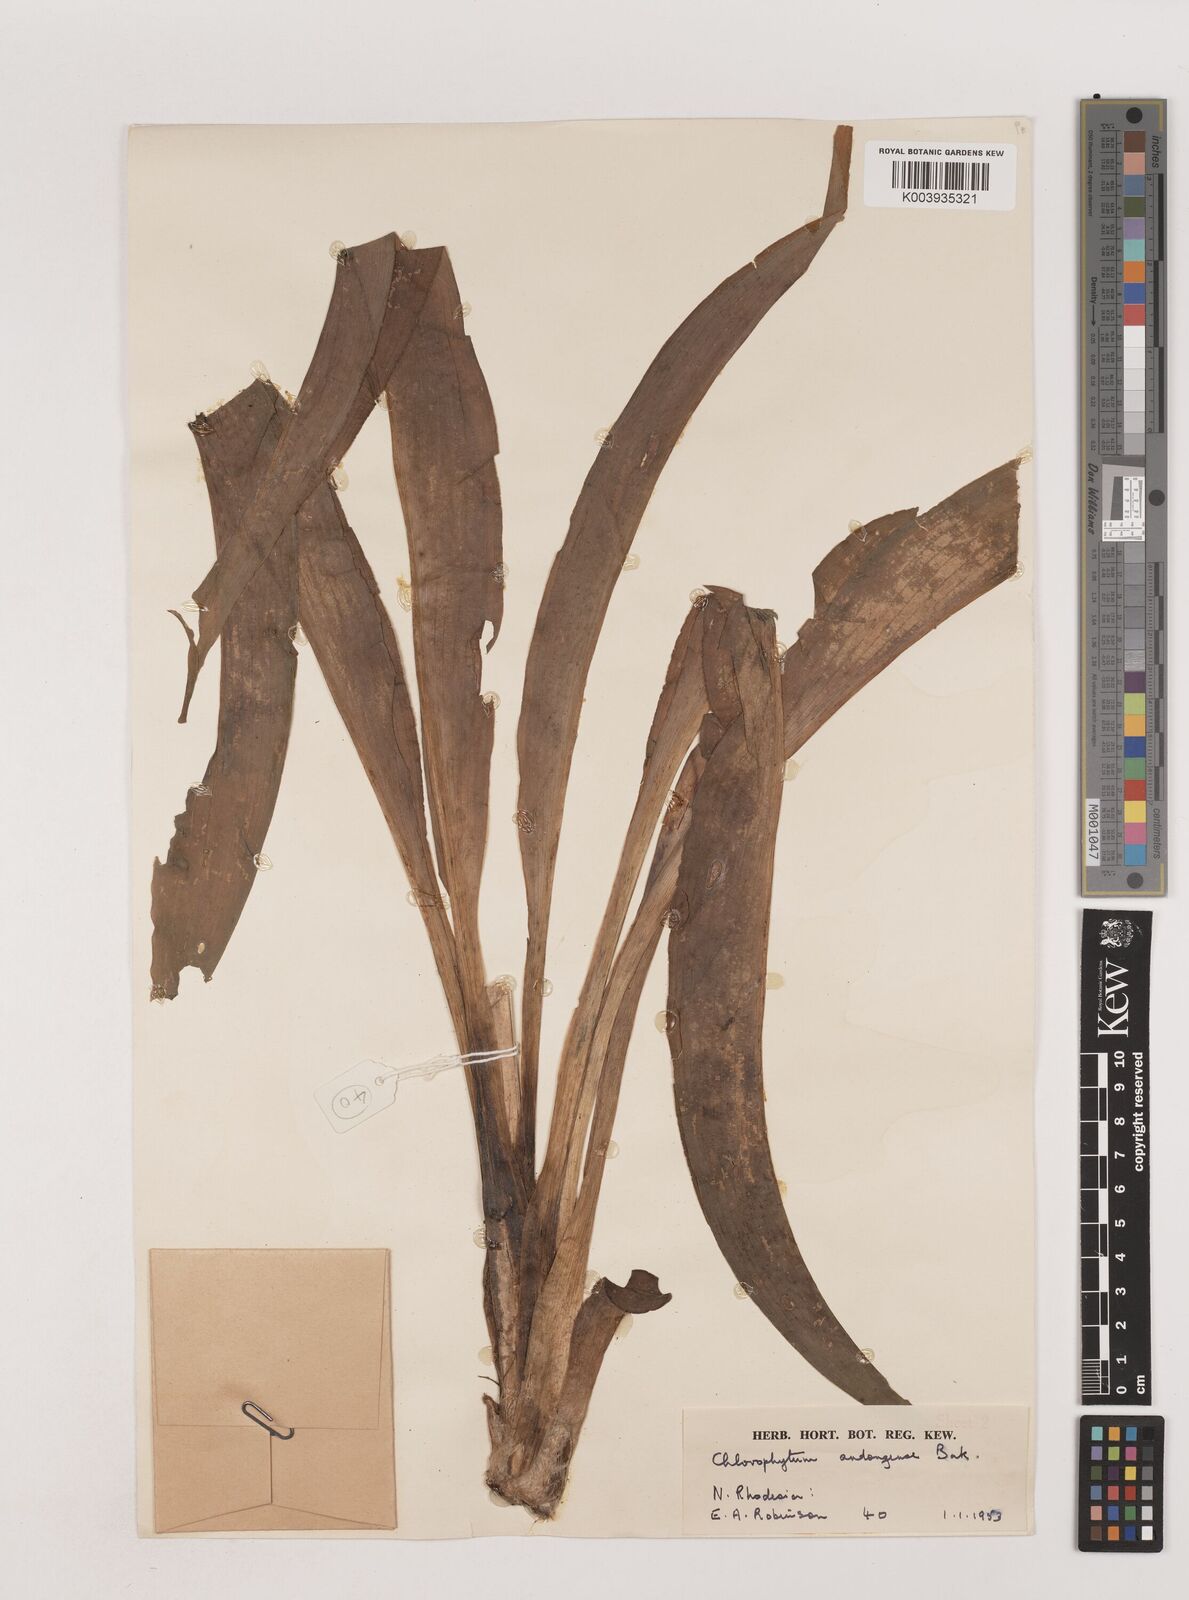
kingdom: Plantae
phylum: Tracheophyta
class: Liliopsida
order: Asparagales
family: Asparagaceae
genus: Chlorophytum
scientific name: Chlorophytum andongense
